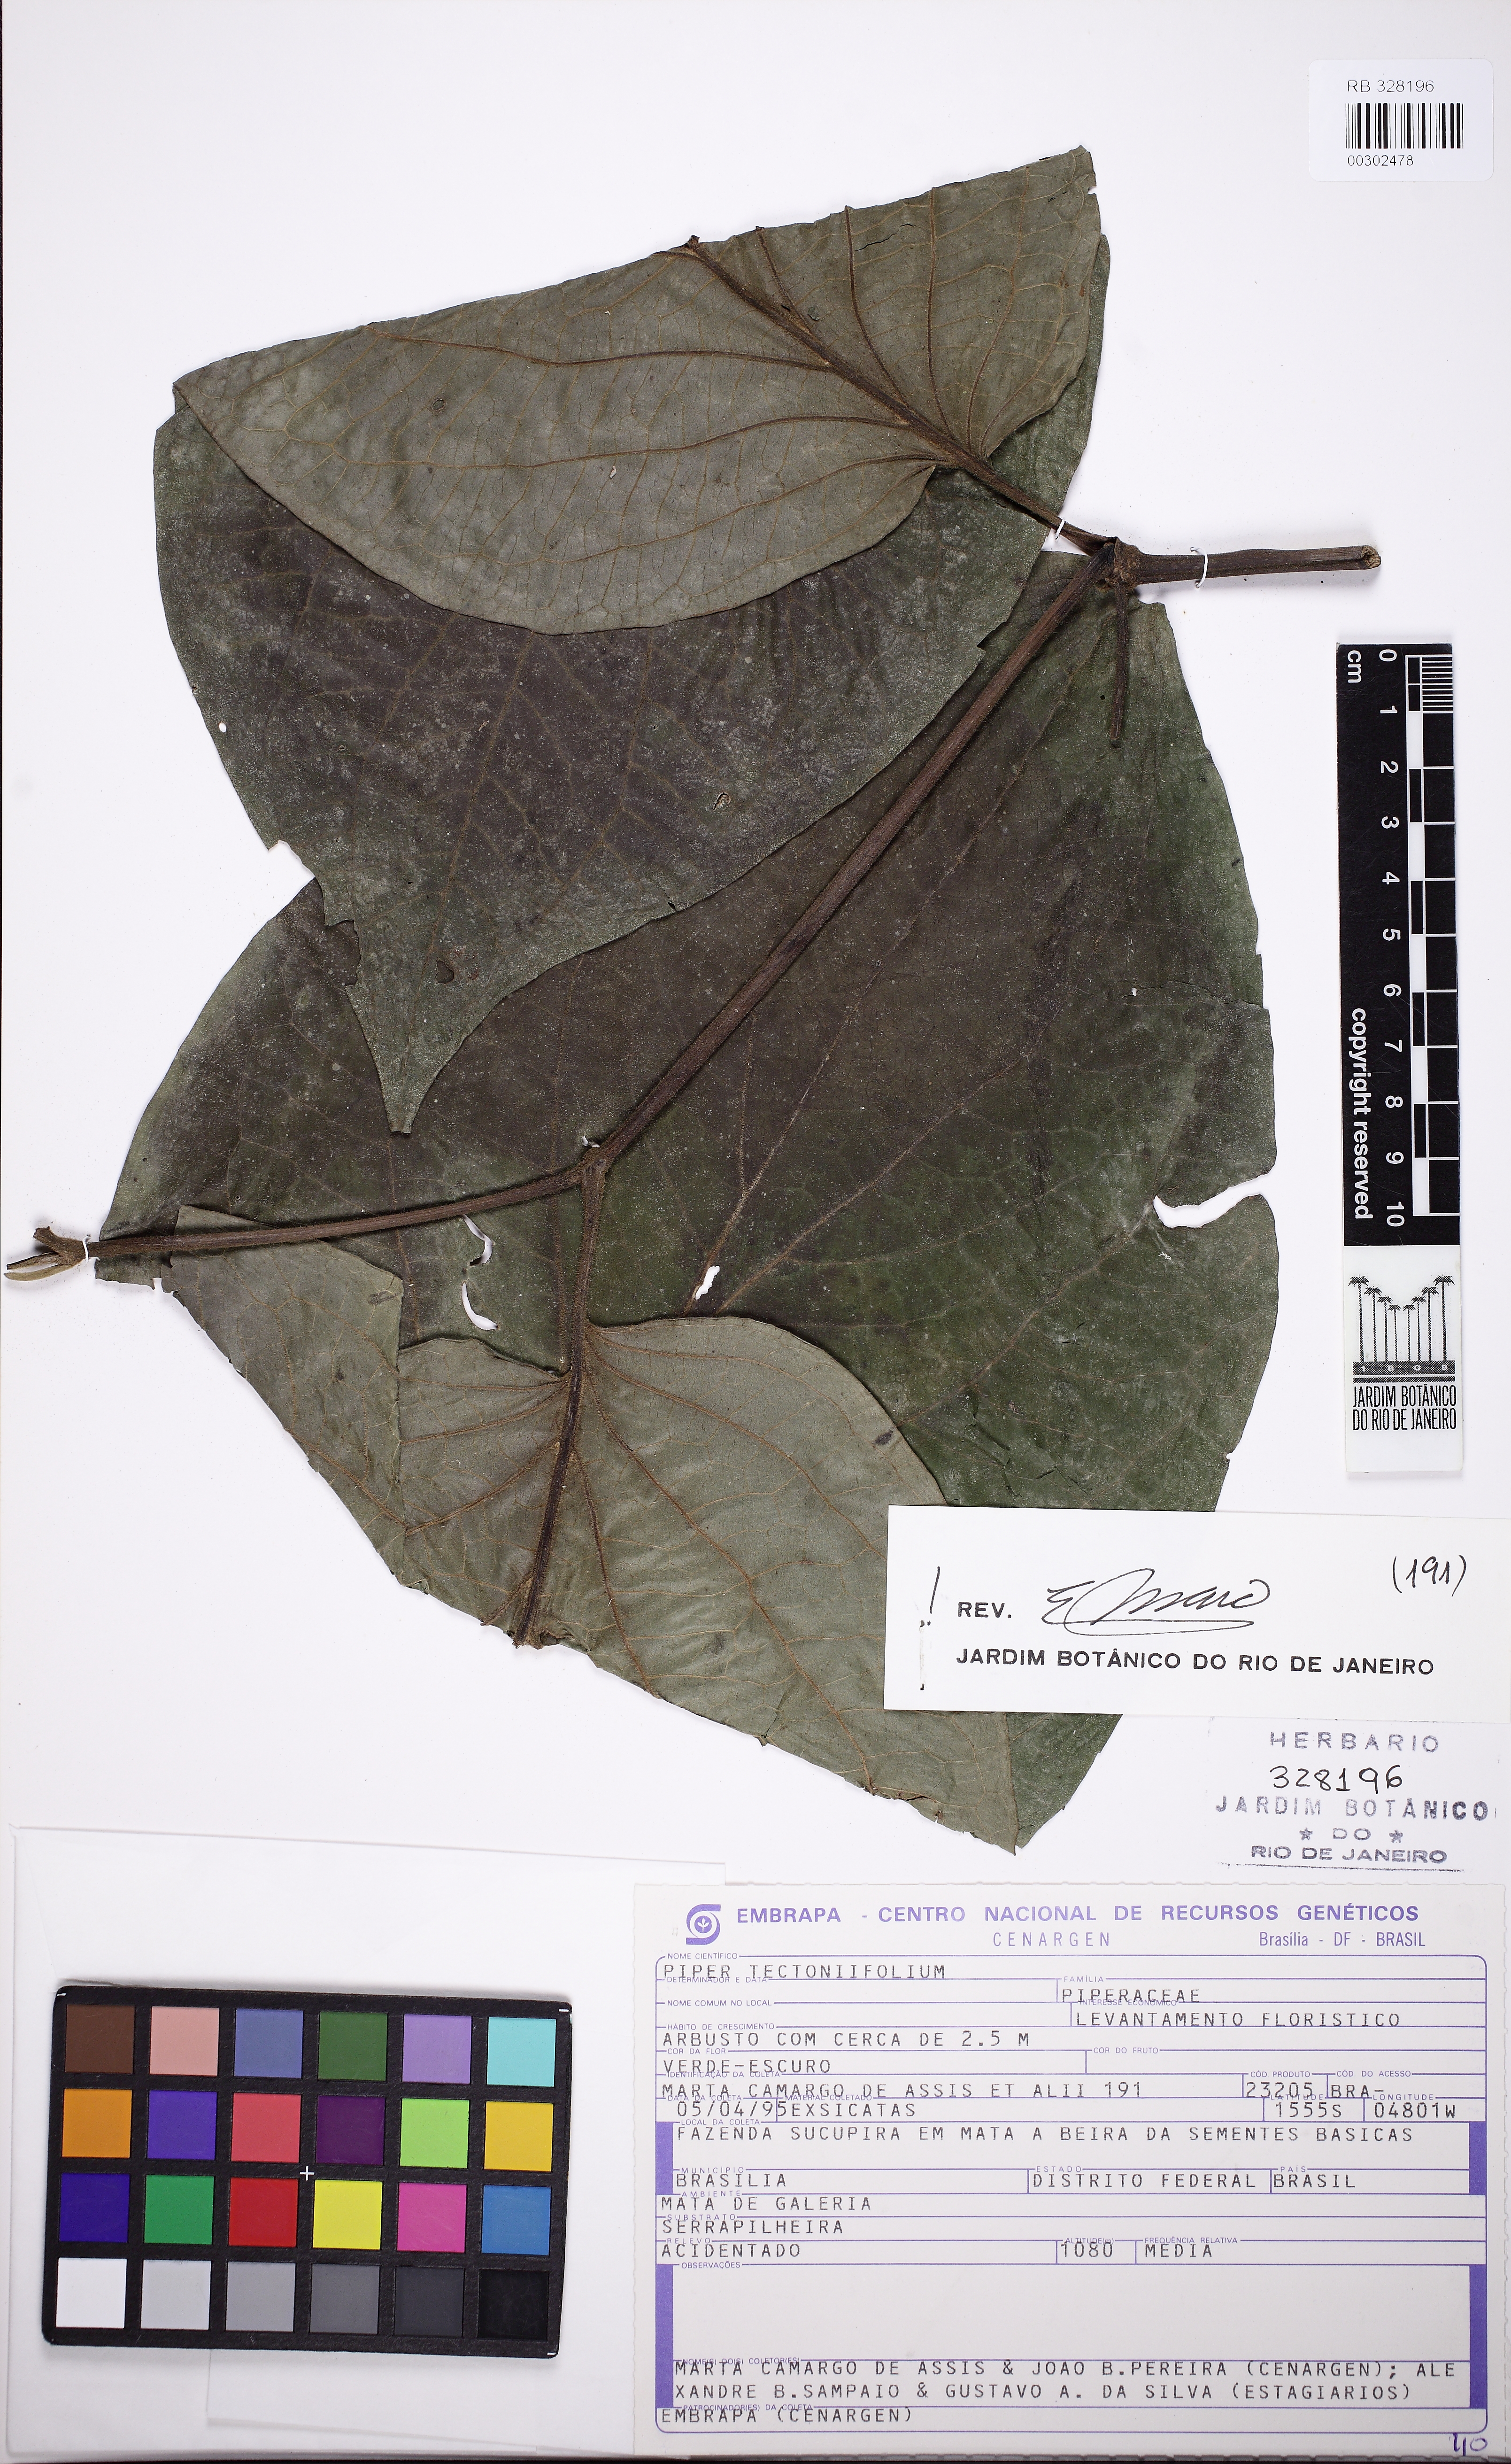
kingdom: Plantae
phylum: Tracheophyta
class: Magnoliopsida
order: Piperales
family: Piperaceae
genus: Piper
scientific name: Piper tectoniifolium
